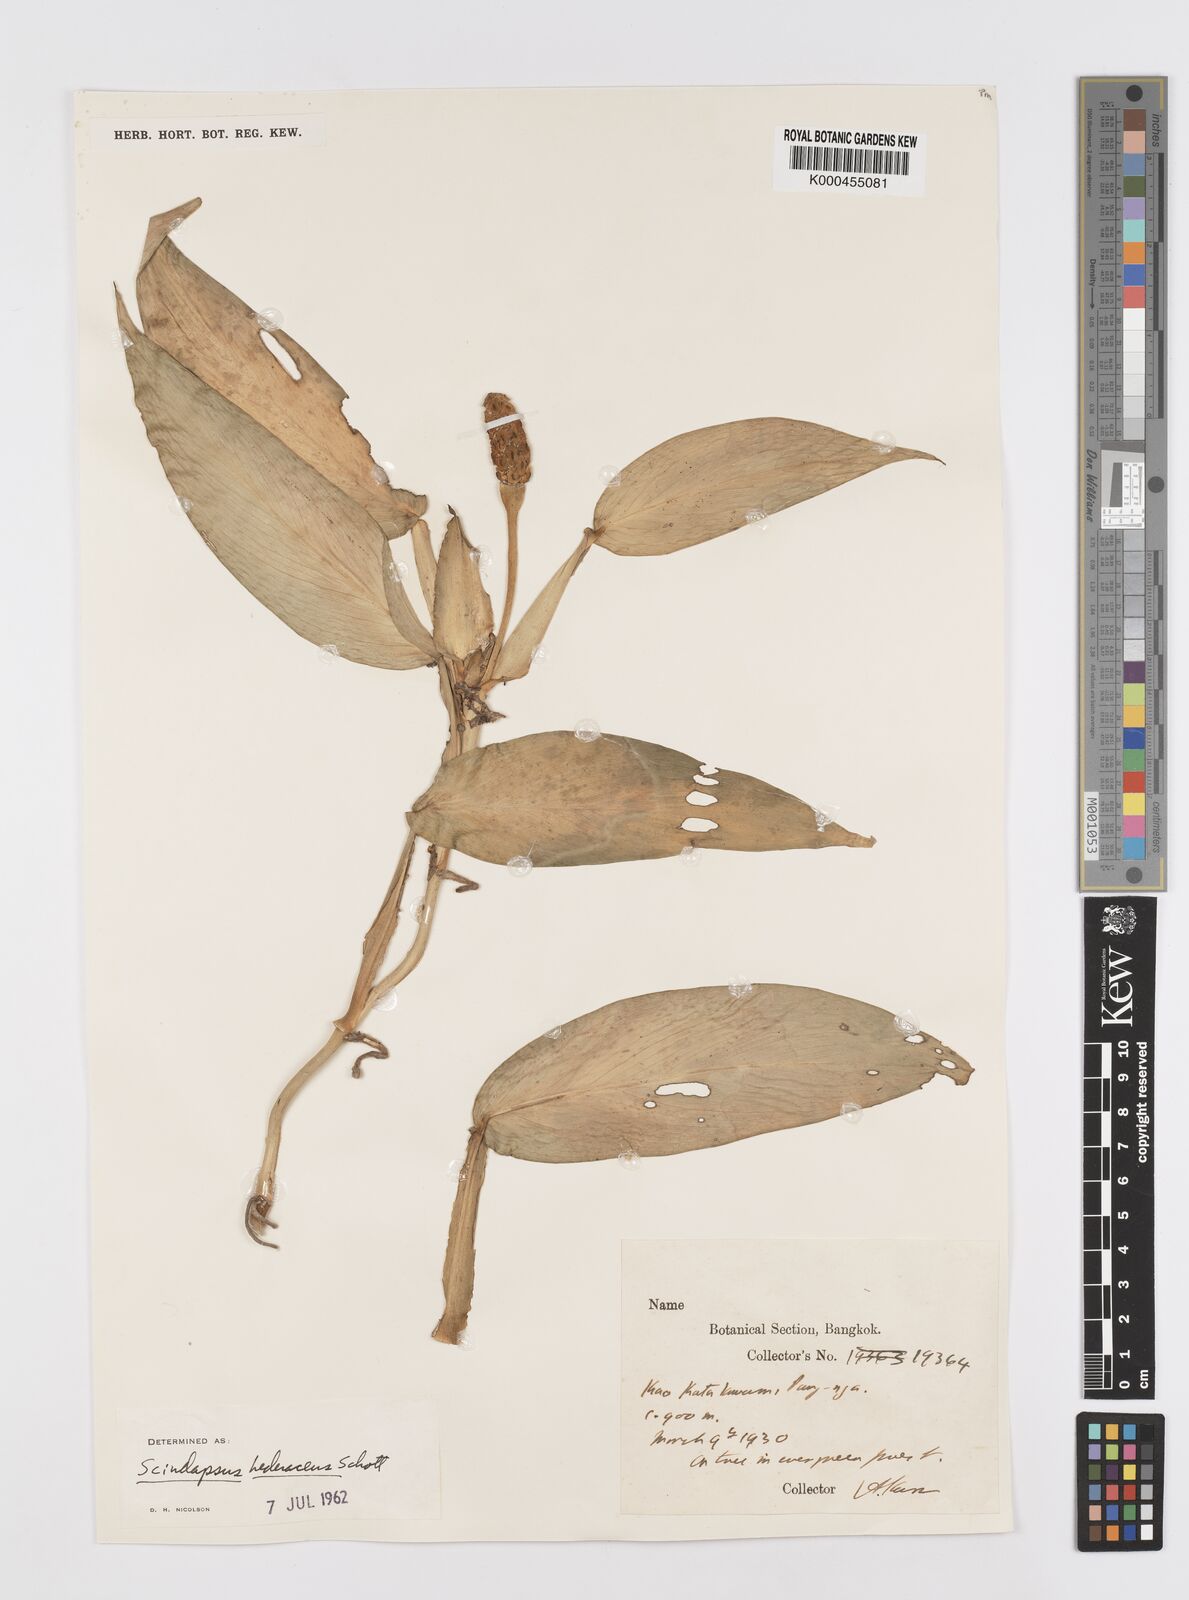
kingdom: Plantae
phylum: Tracheophyta
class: Liliopsida
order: Alismatales
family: Araceae
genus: Scindapsus
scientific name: Scindapsus hederaceus
